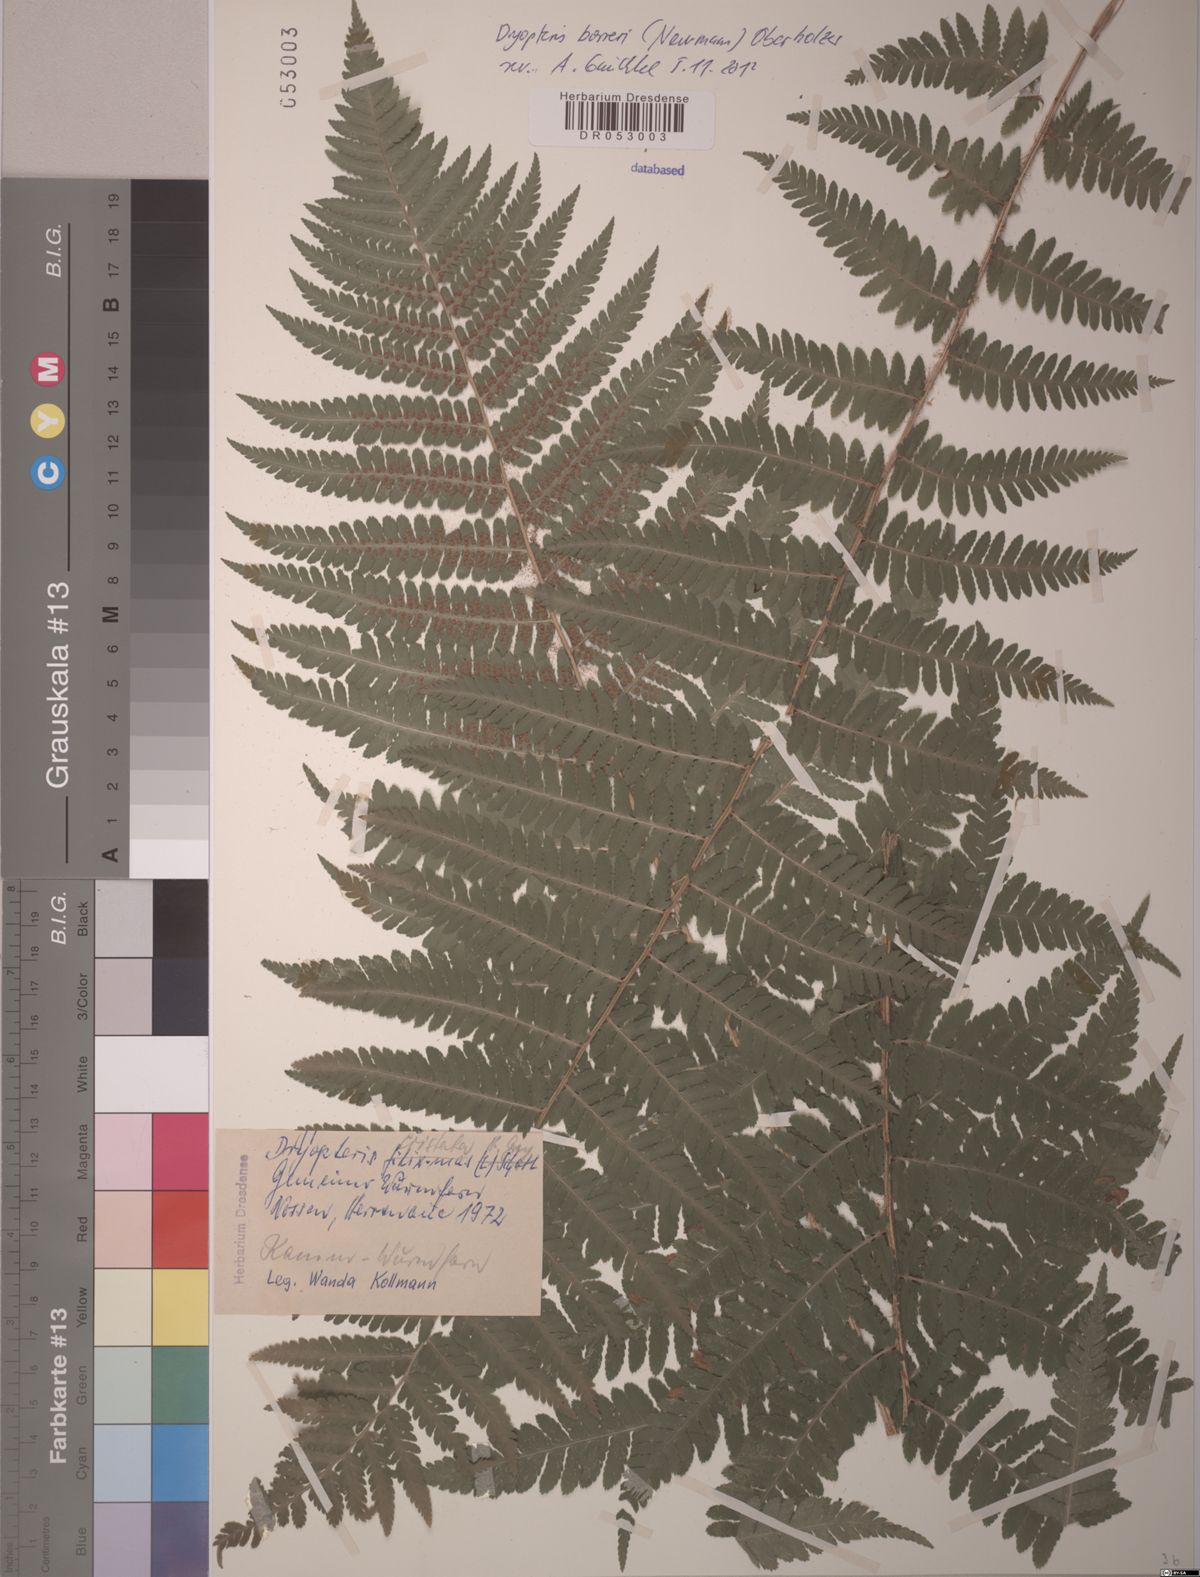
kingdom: Plantae
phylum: Tracheophyta
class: Polypodiopsida
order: Polypodiales
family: Dryopteridaceae
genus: Dryopteris
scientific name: Dryopteris borreri
